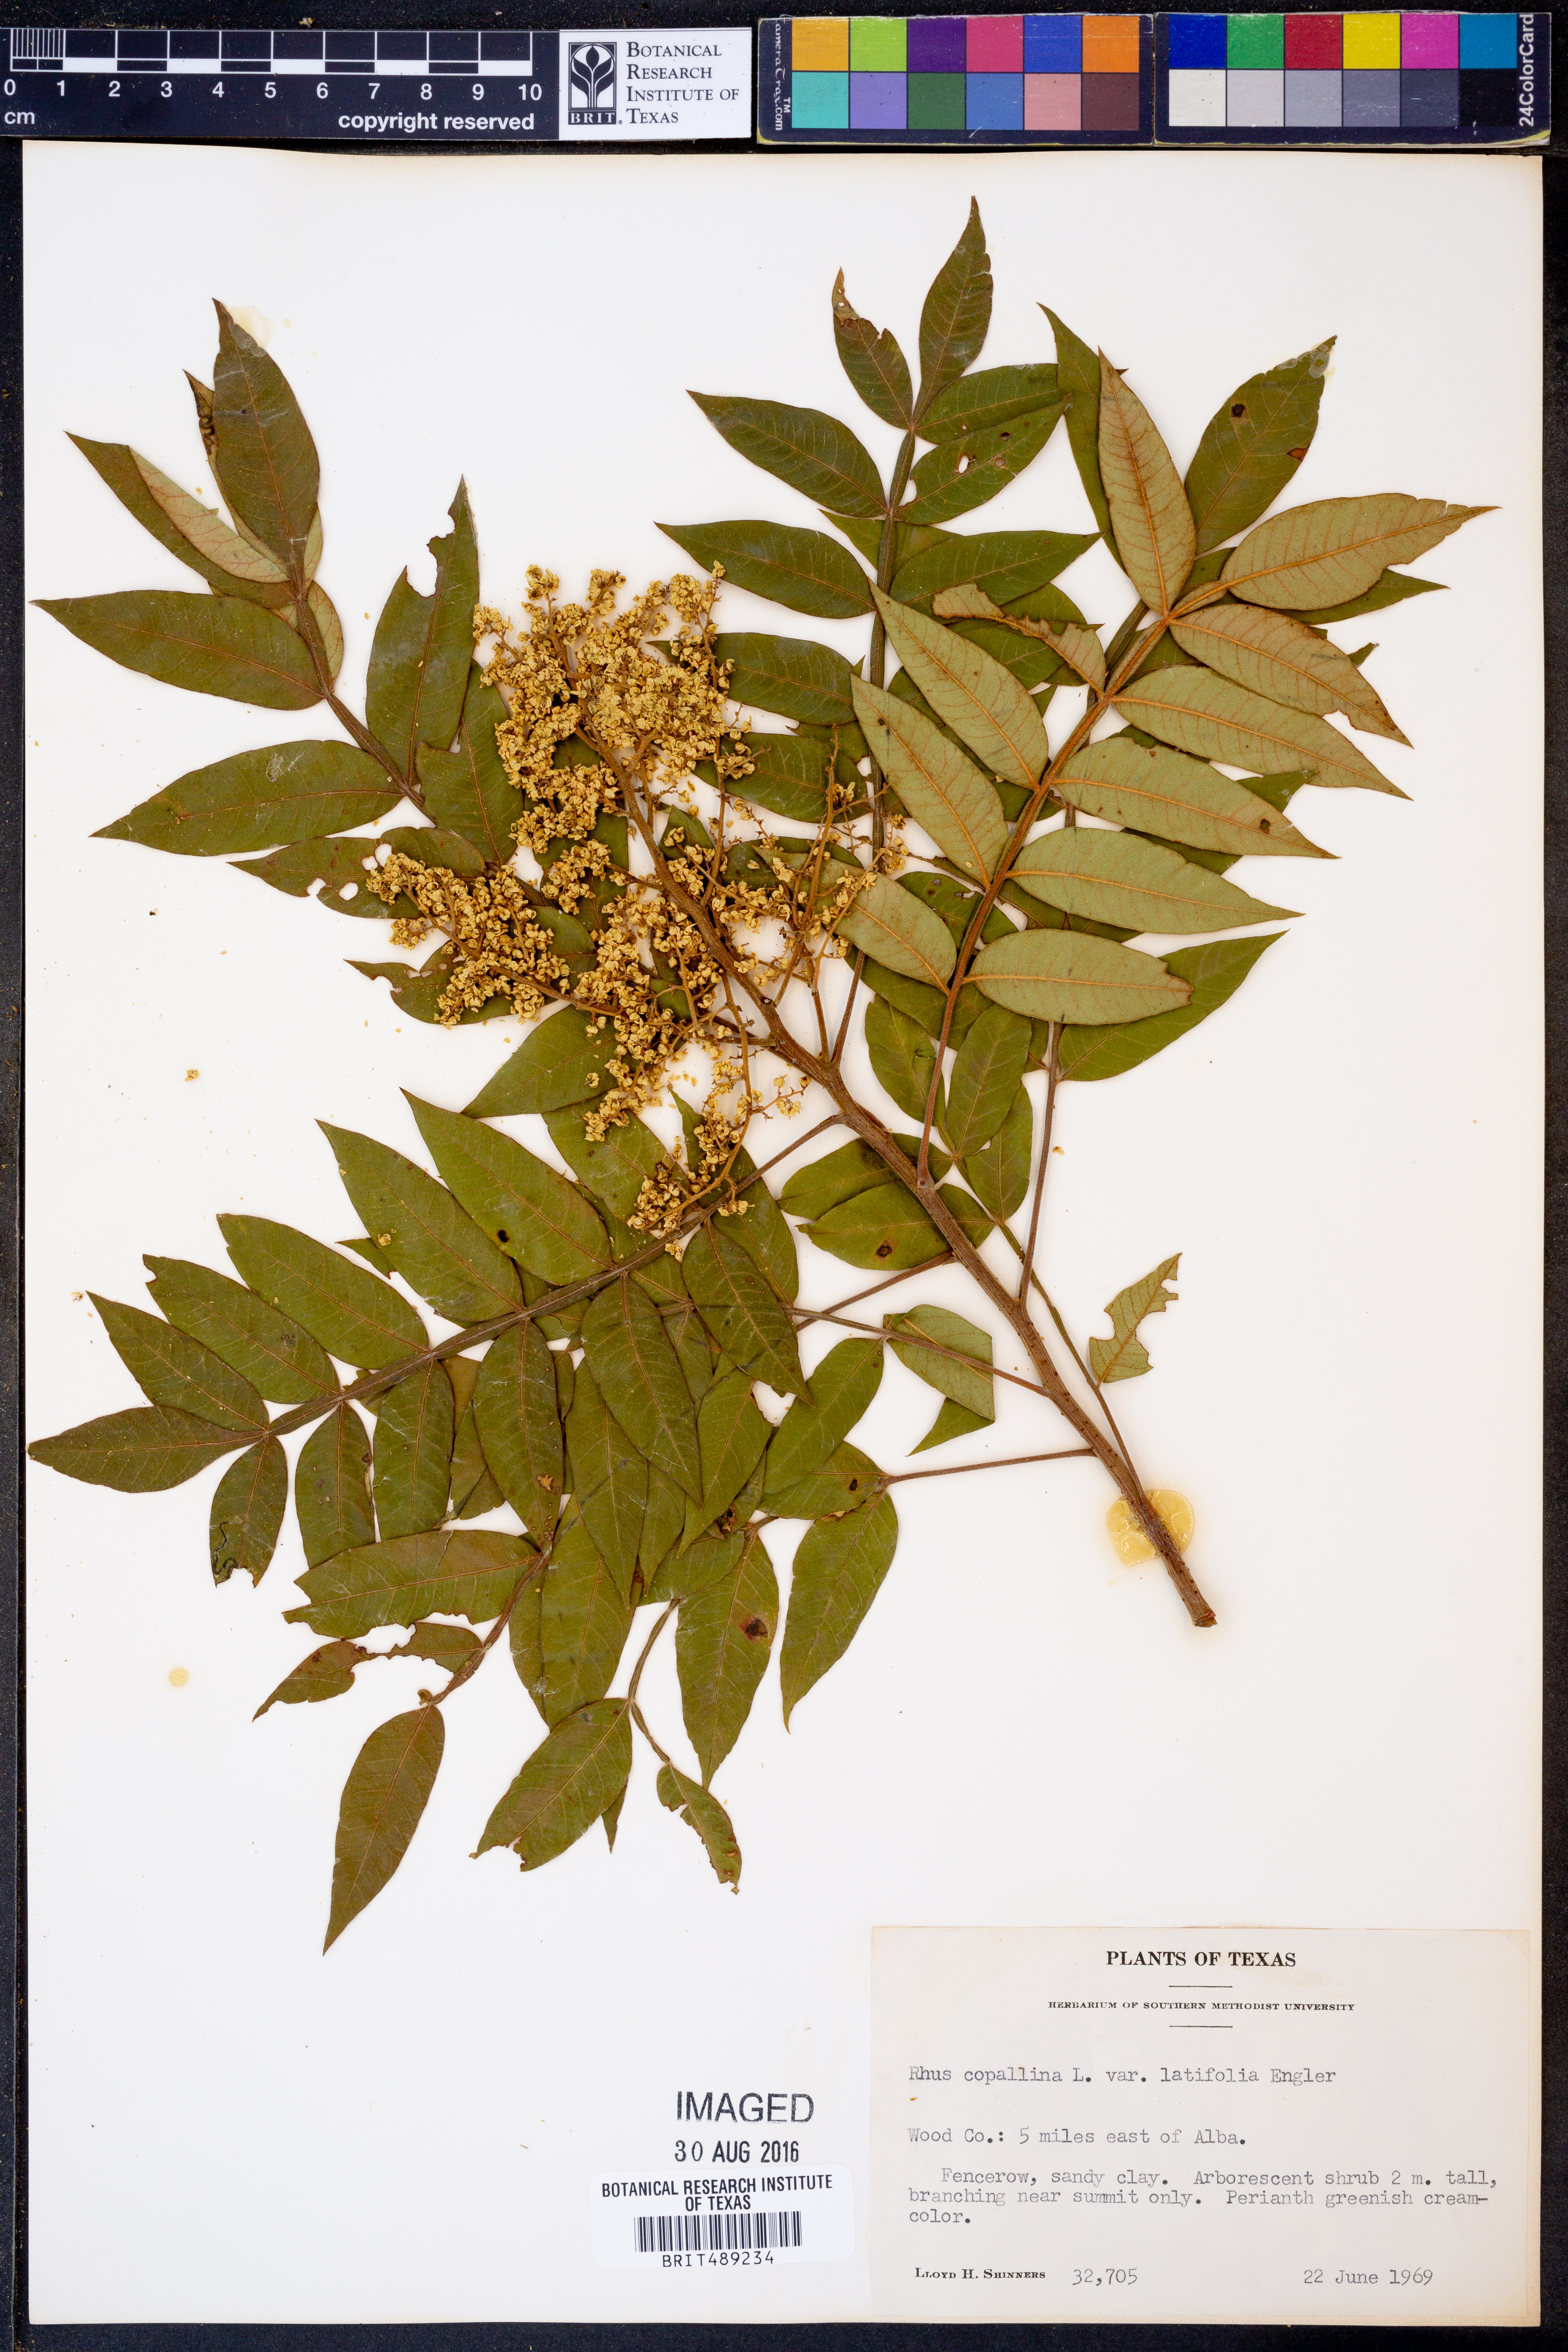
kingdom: Plantae
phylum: Tracheophyta
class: Magnoliopsida
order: Sapindales
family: Anacardiaceae
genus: Rhus
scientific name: Rhus copallina
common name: Shining sumac
